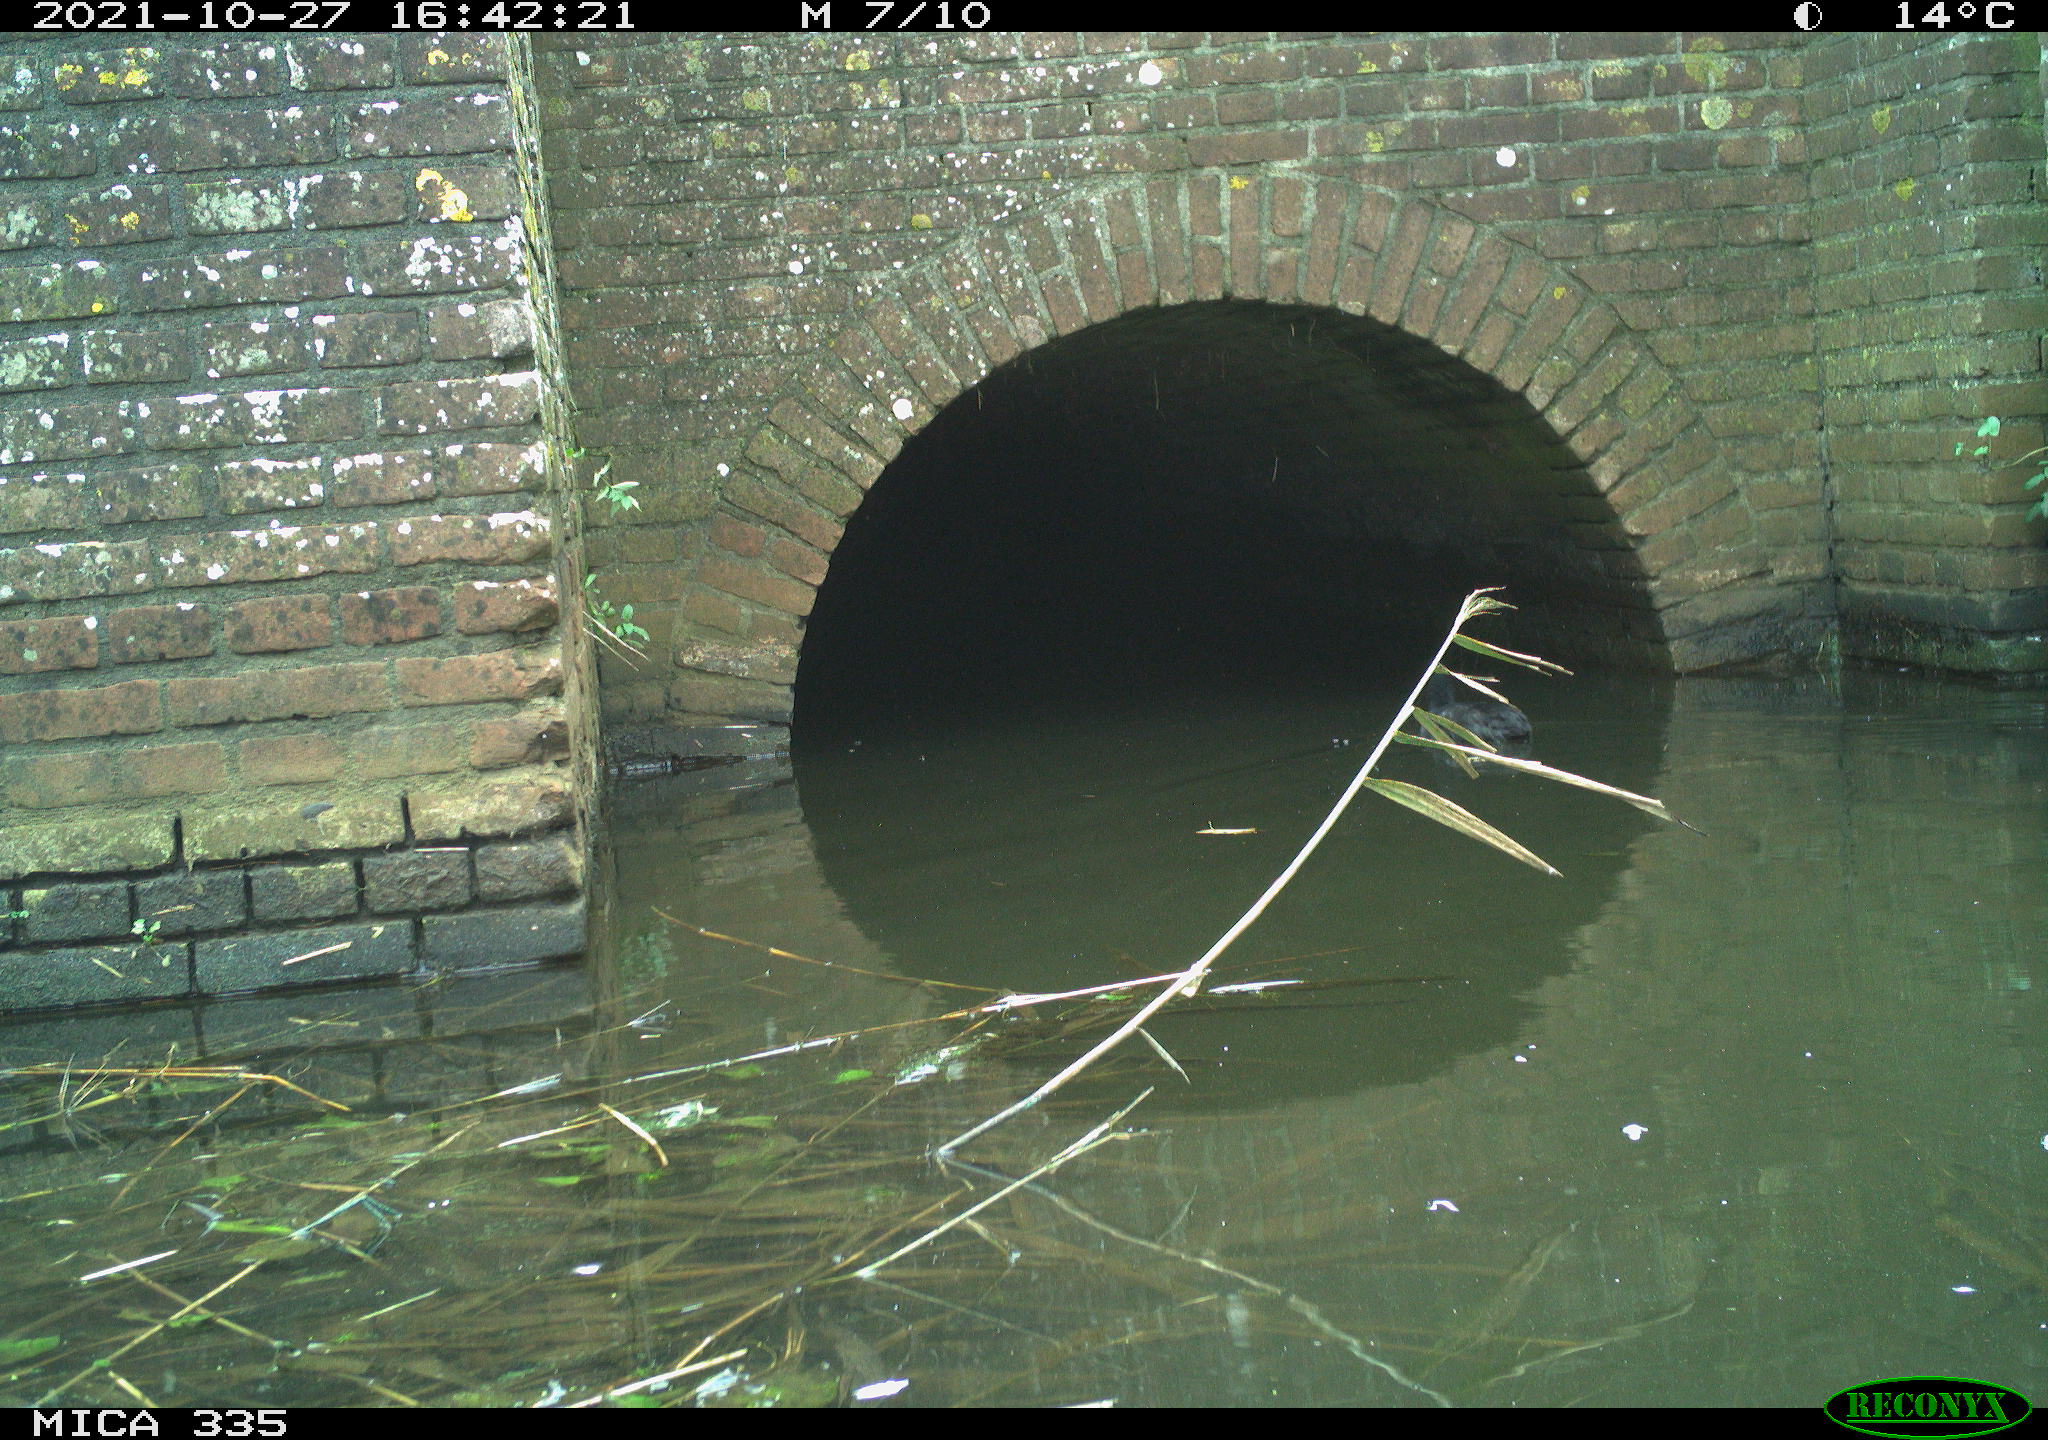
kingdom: Animalia
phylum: Chordata
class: Aves
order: Gruiformes
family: Rallidae
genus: Fulica
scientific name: Fulica atra
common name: Eurasian coot
